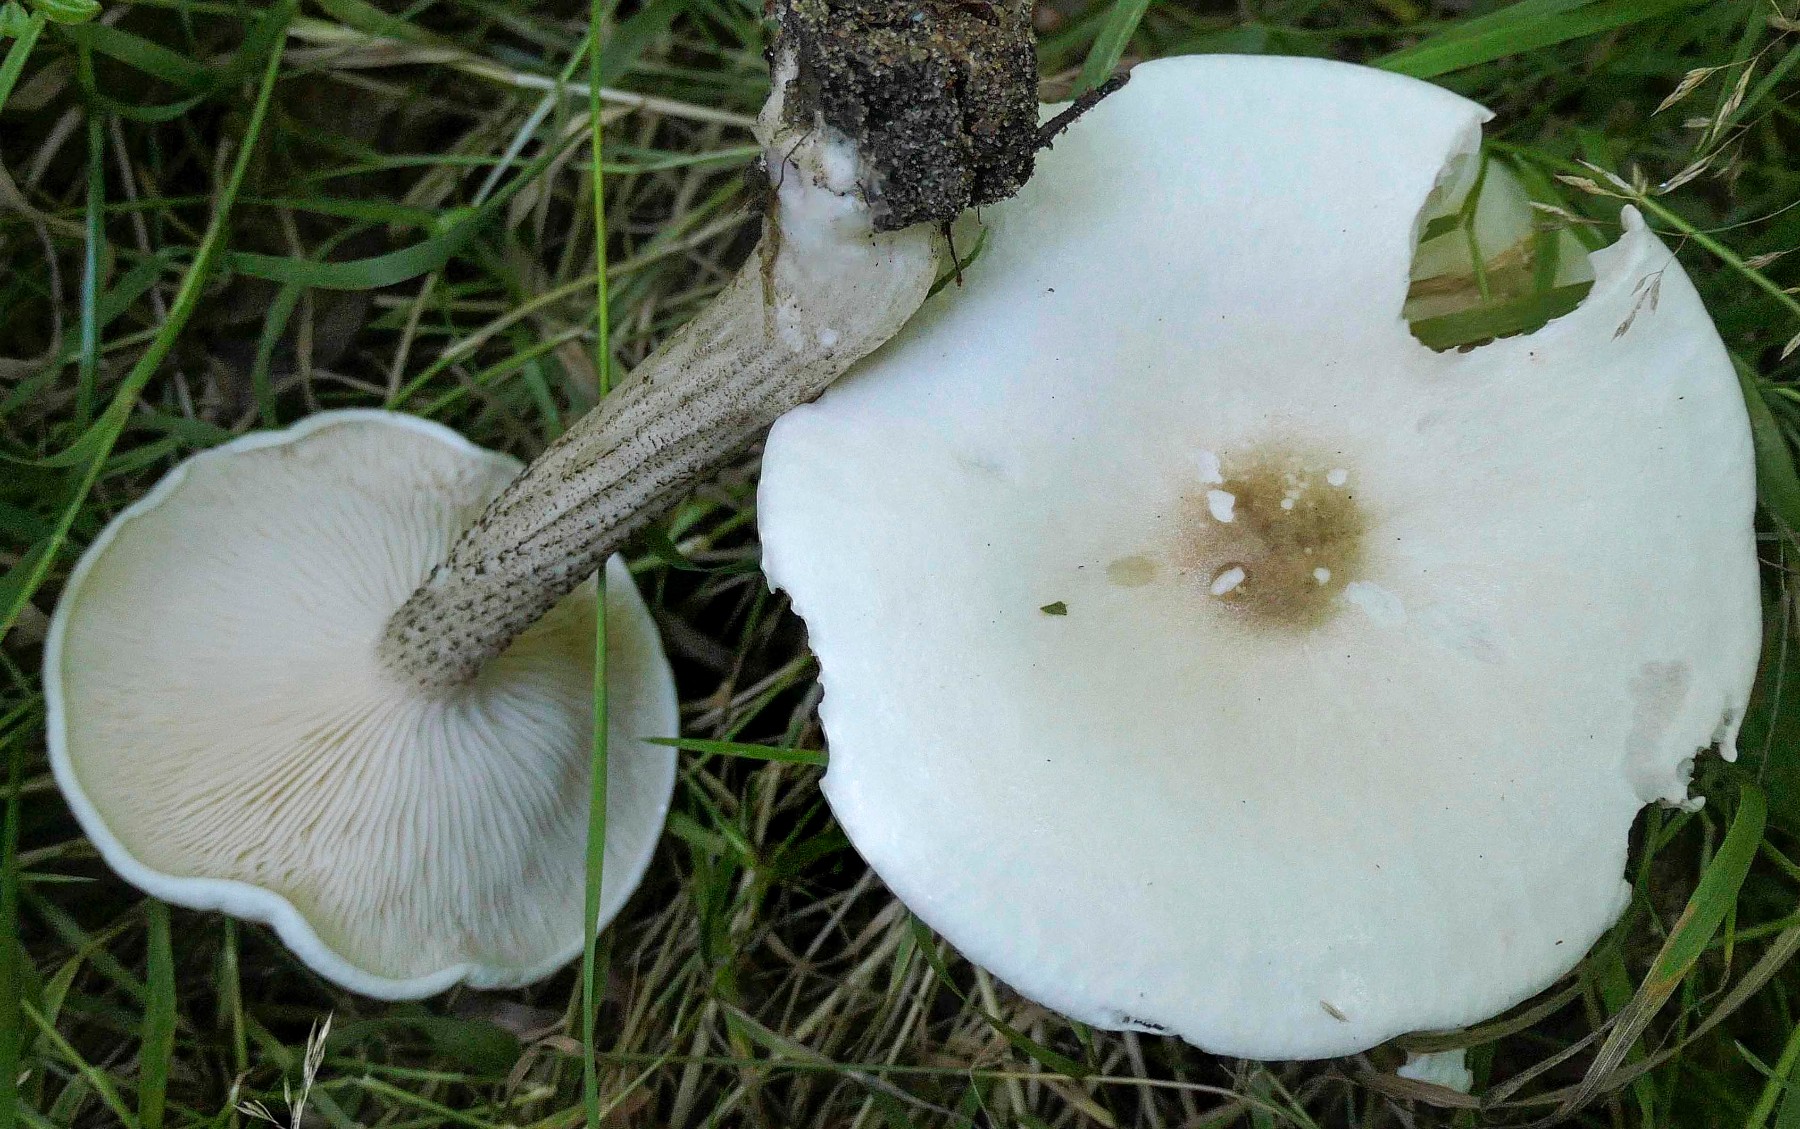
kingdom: Fungi
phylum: Basidiomycota
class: Agaricomycetes
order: Agaricales
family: Tricholomataceae
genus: Melanoleuca
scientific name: Melanoleuca verrucipes
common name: rufodet munkehat
